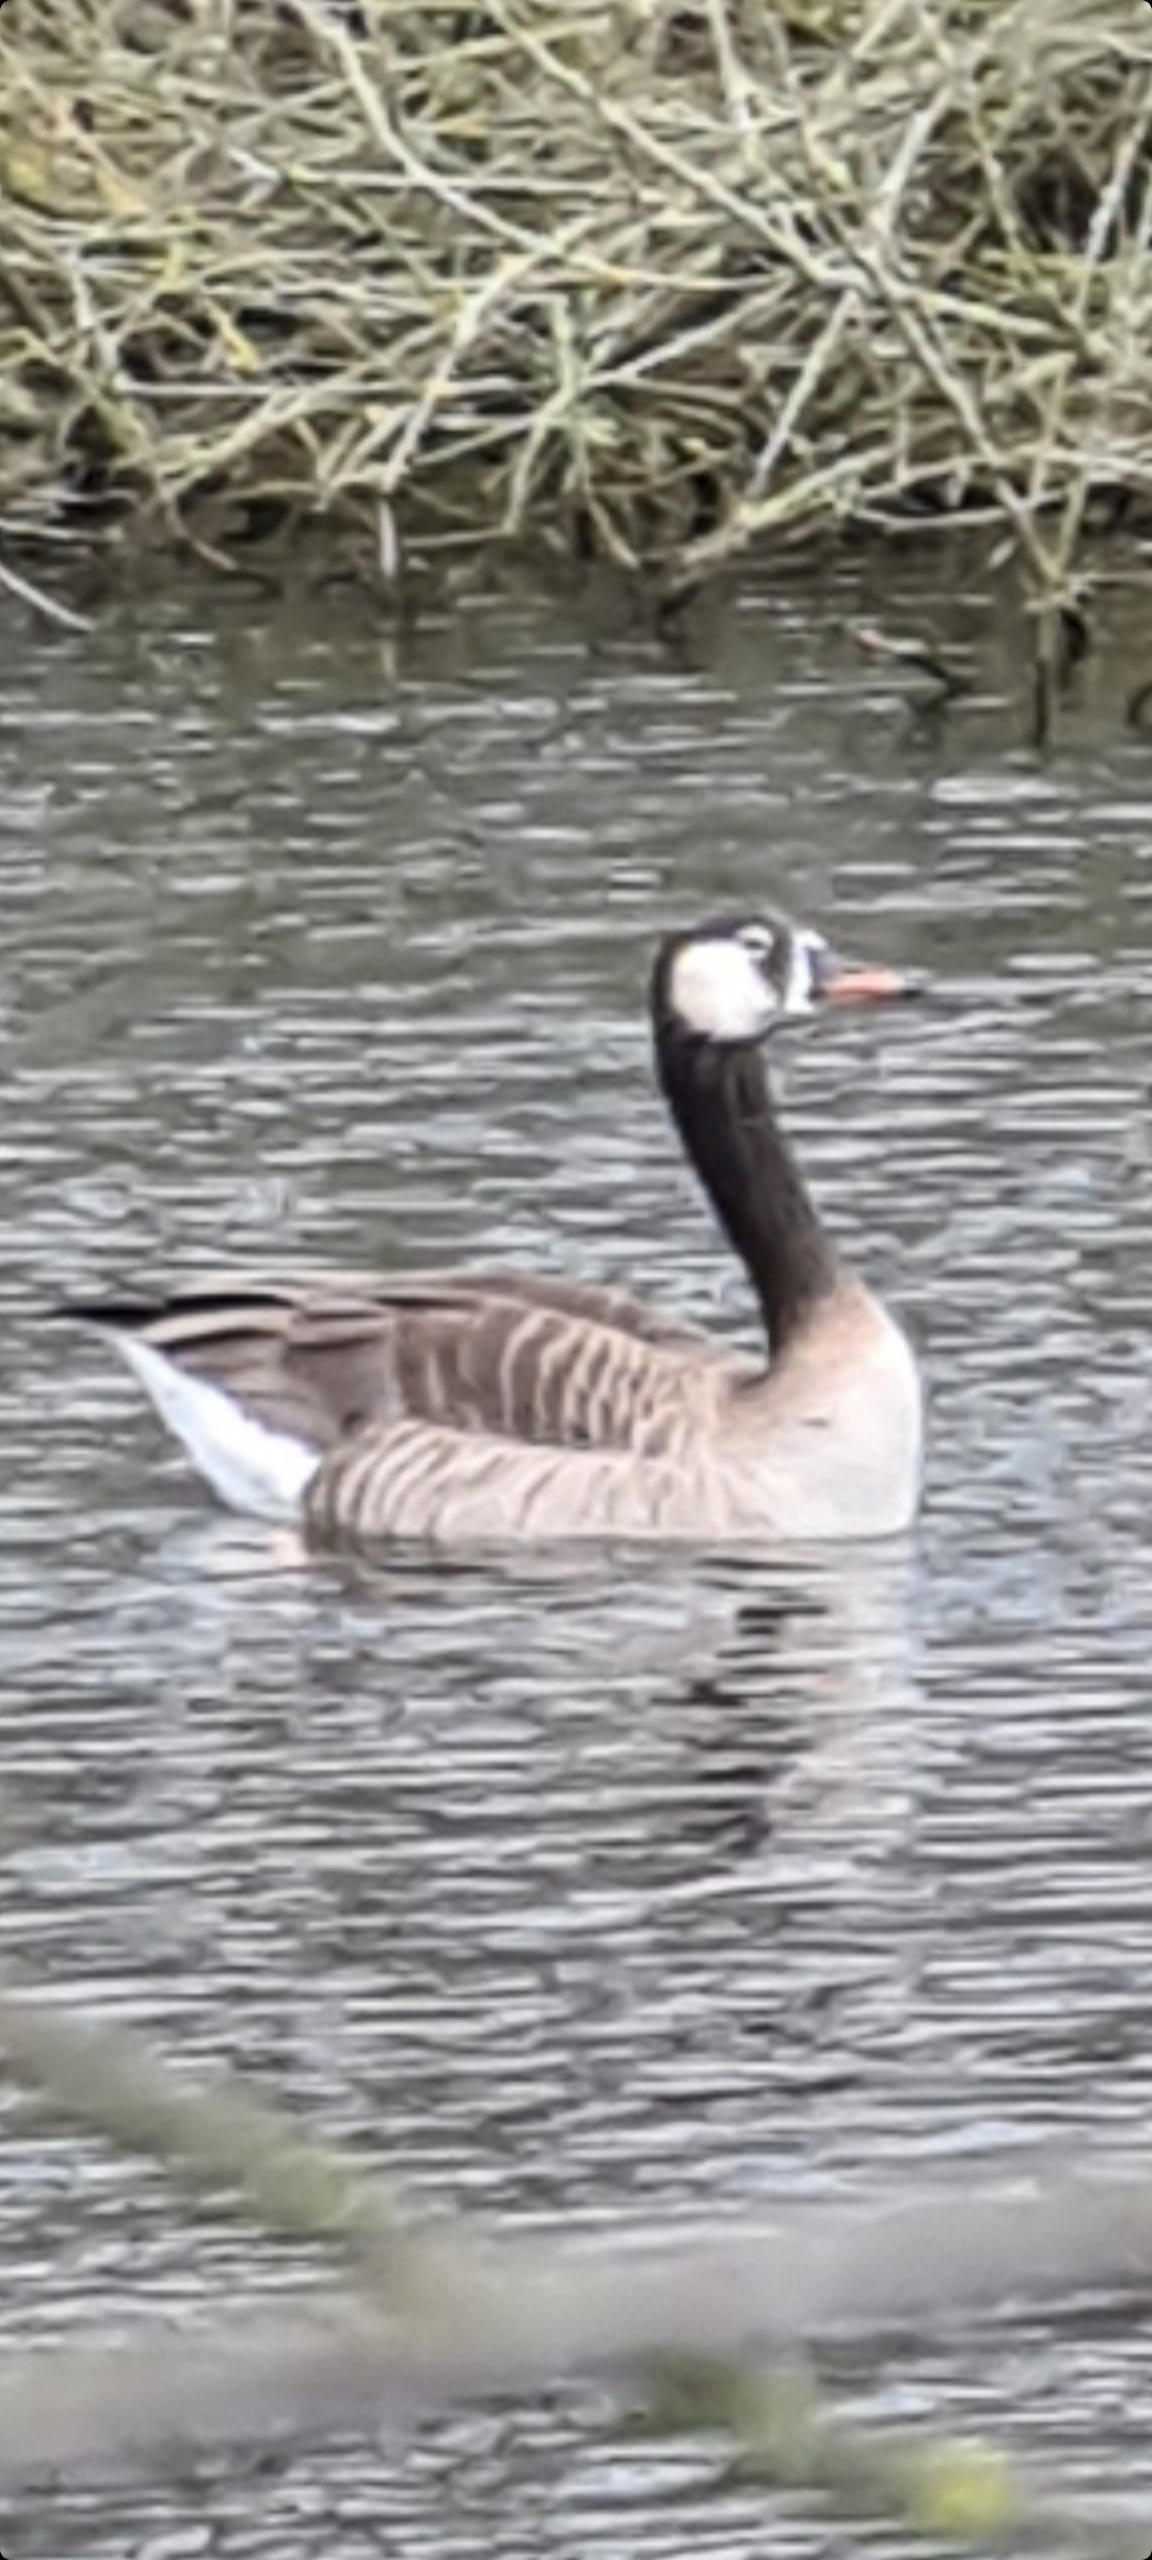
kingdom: Animalia
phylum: Chordata
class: Aves
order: Anseriformes
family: Anatidae
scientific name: Anatidae
